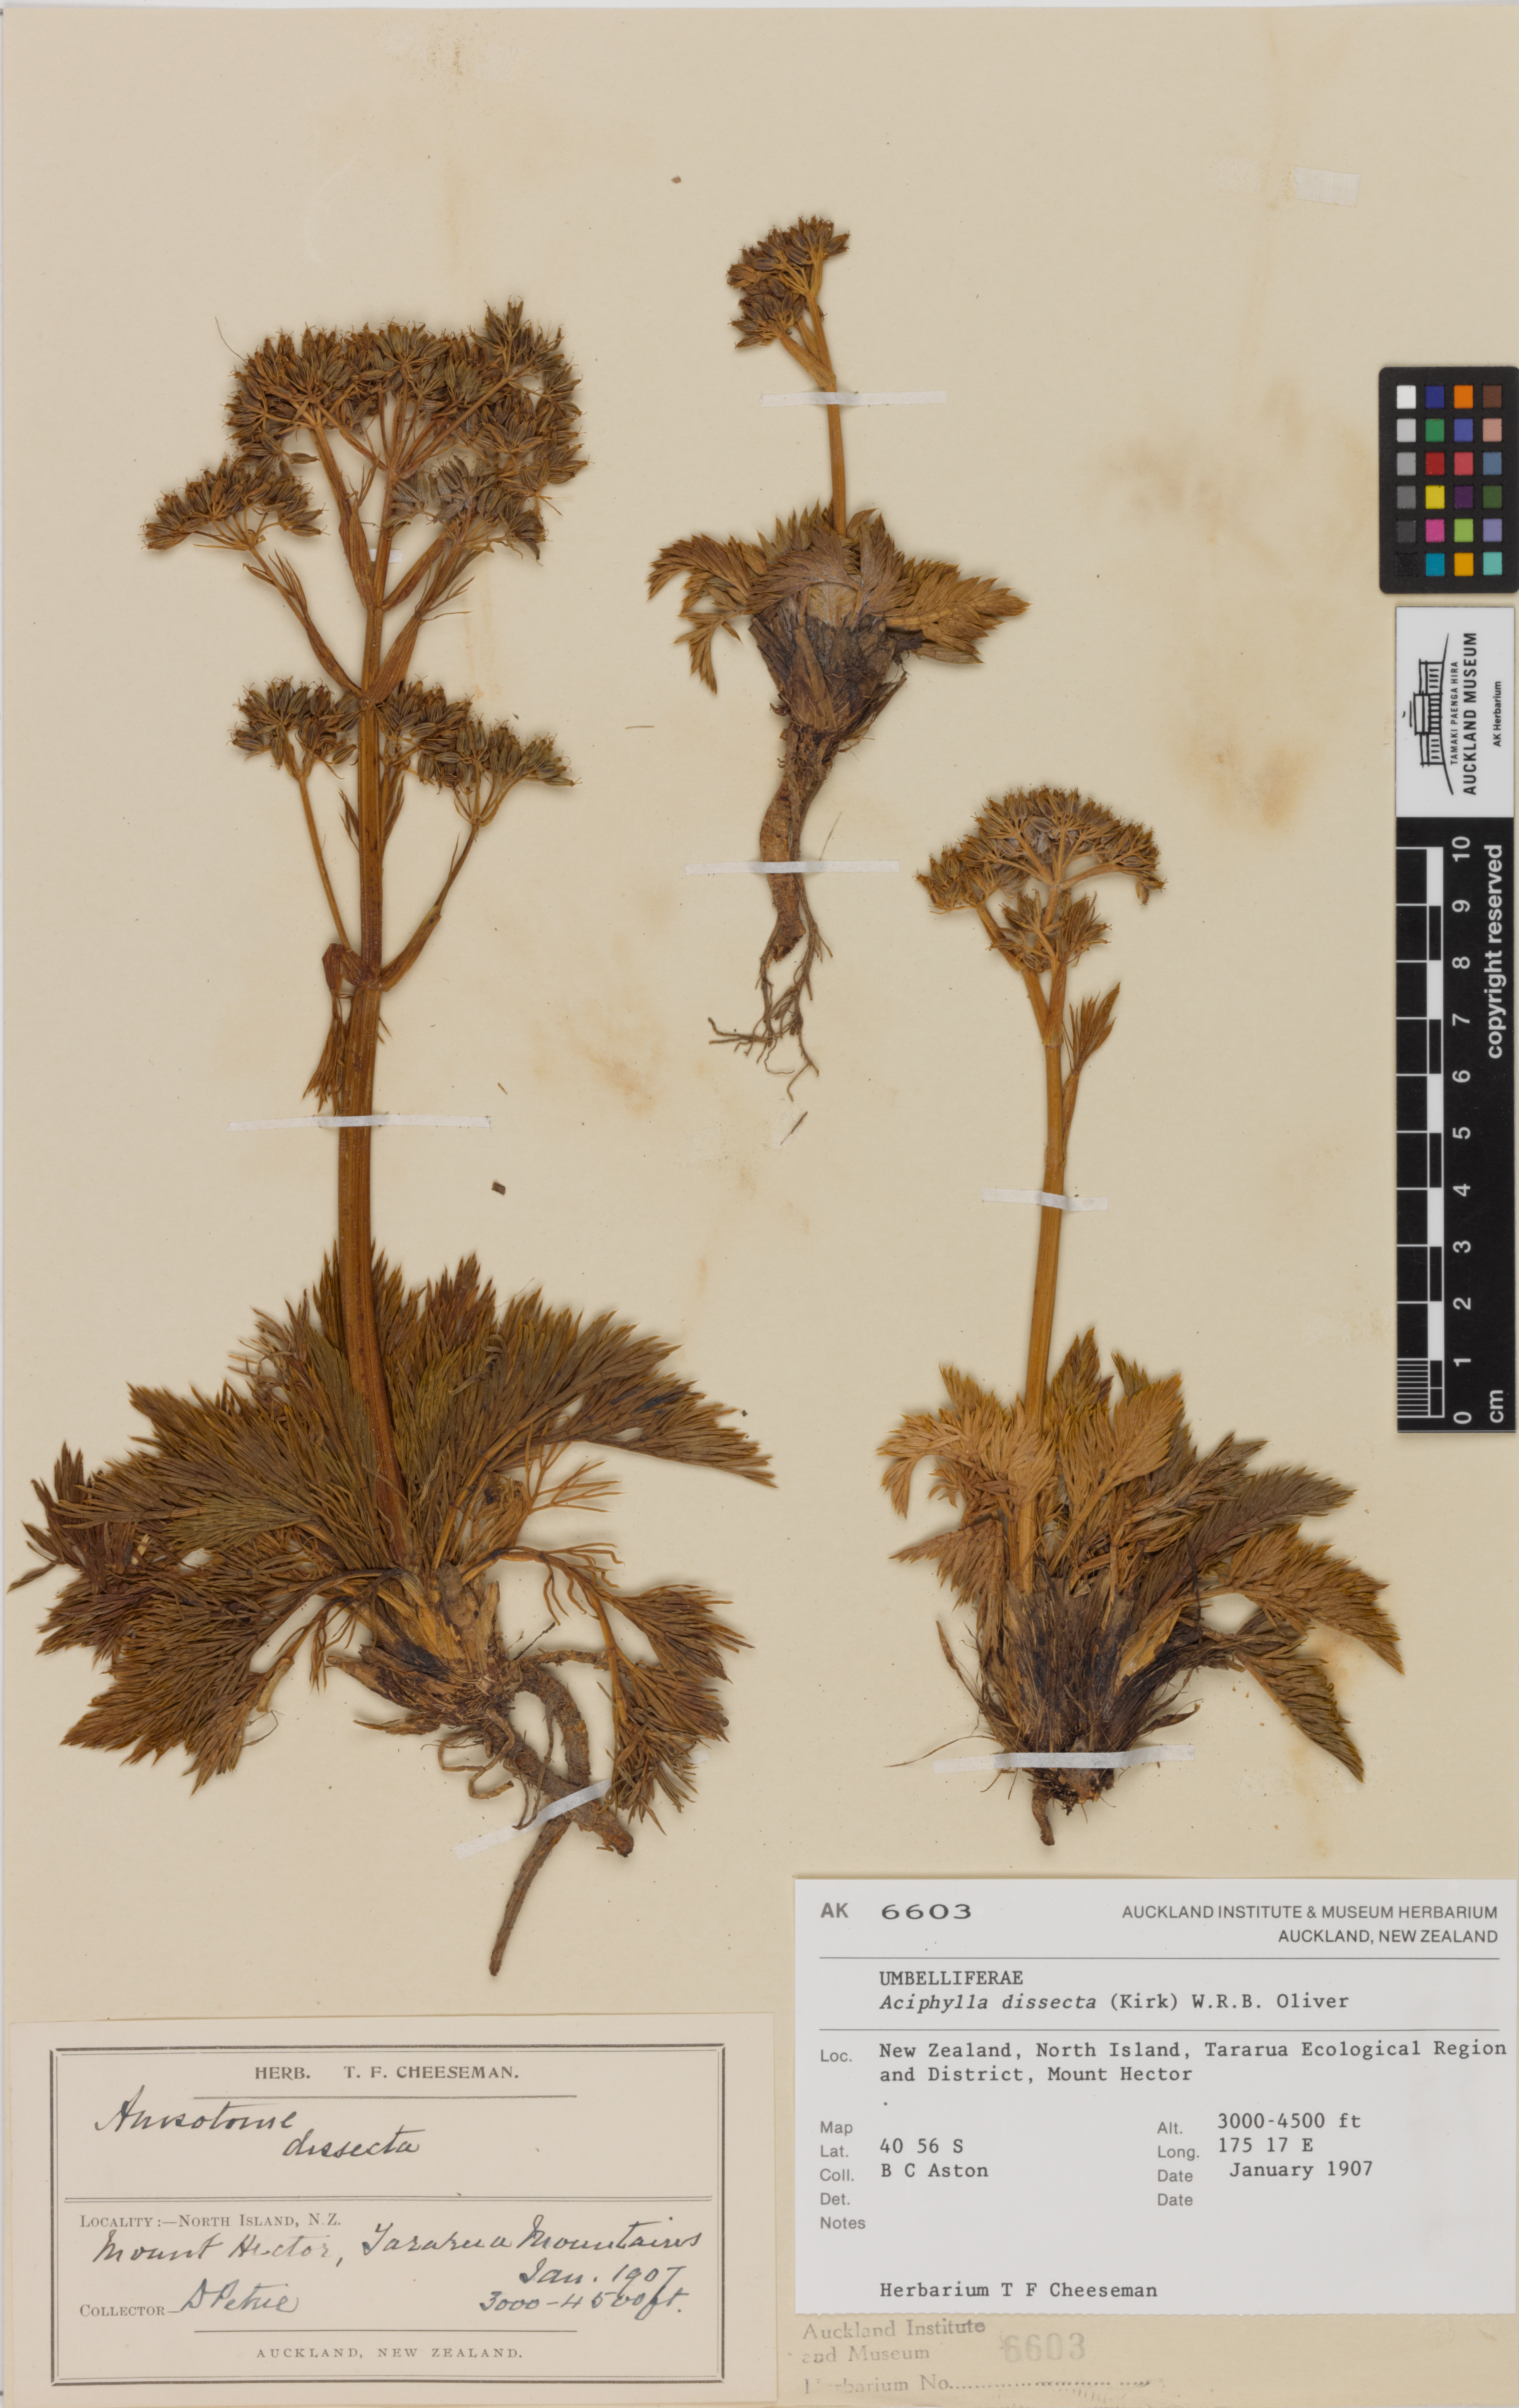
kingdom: Plantae
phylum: Tracheophyta
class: Magnoliopsida
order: Apiales
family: Apiaceae
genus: Aciphylla
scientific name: Aciphylla dissecta
